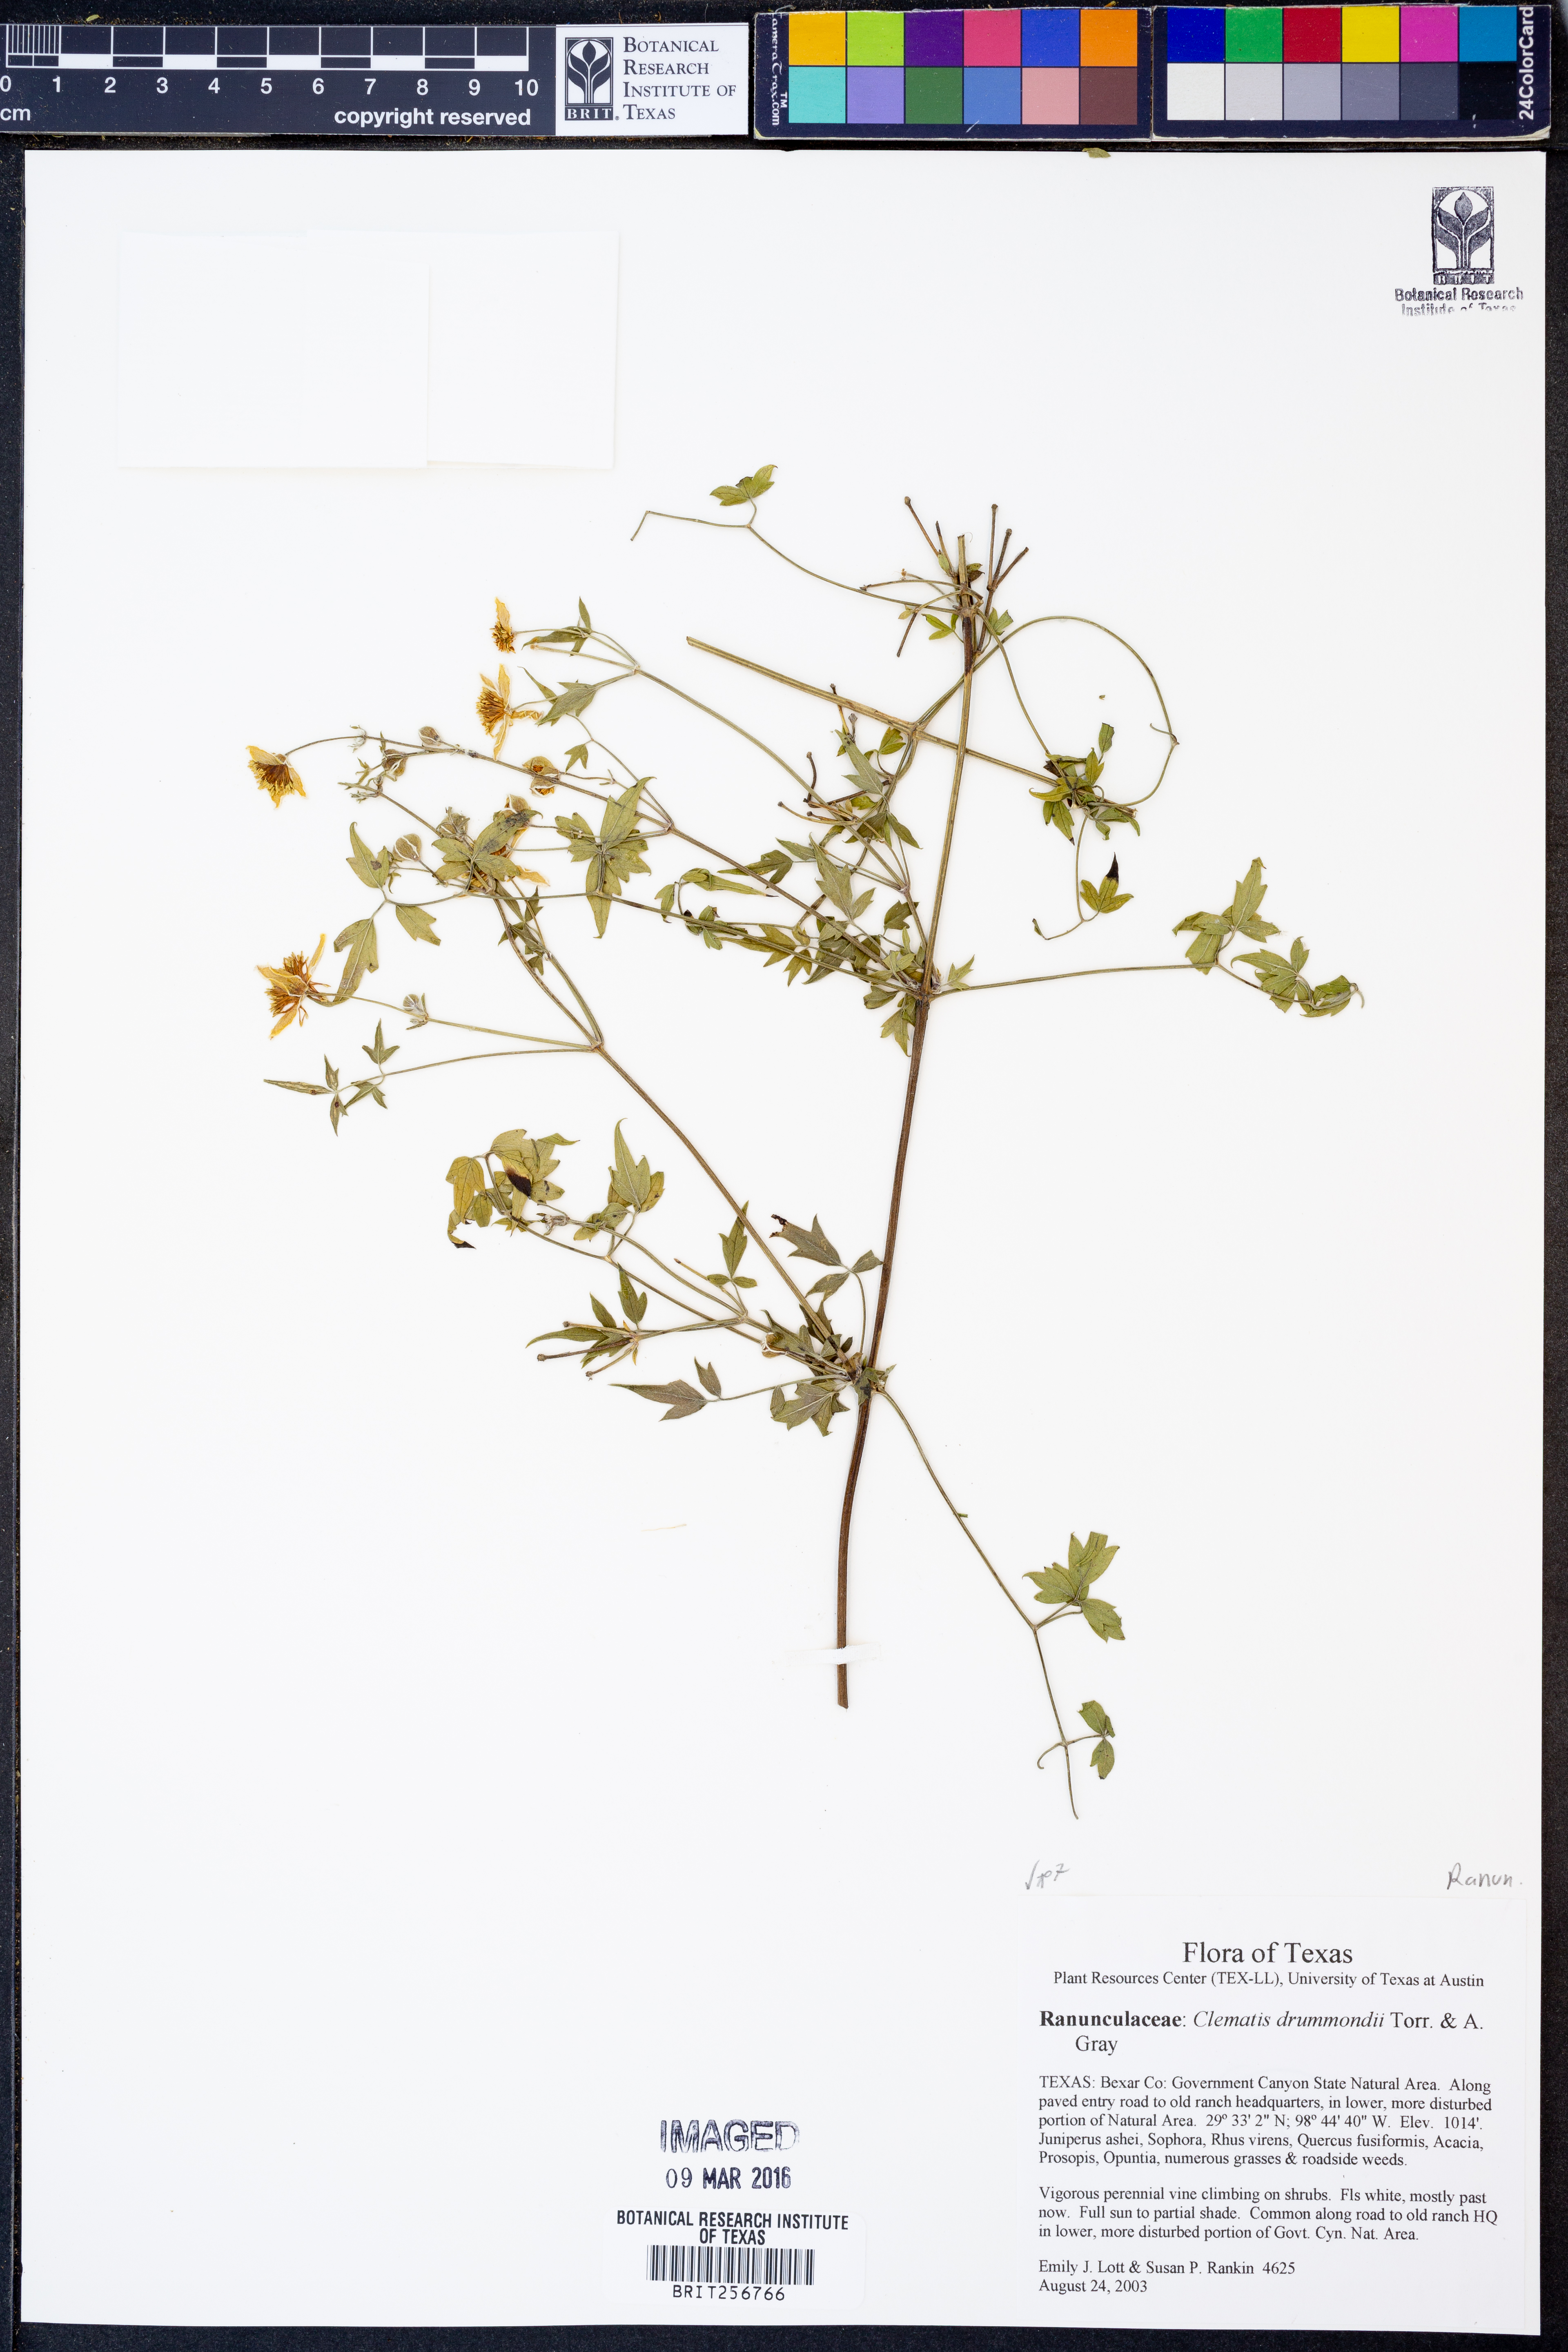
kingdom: Plantae
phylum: Tracheophyta
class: Magnoliopsida
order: Ranunculales
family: Ranunculaceae
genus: Clematis
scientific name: Clematis drummondii
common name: Texas virgin's bower
